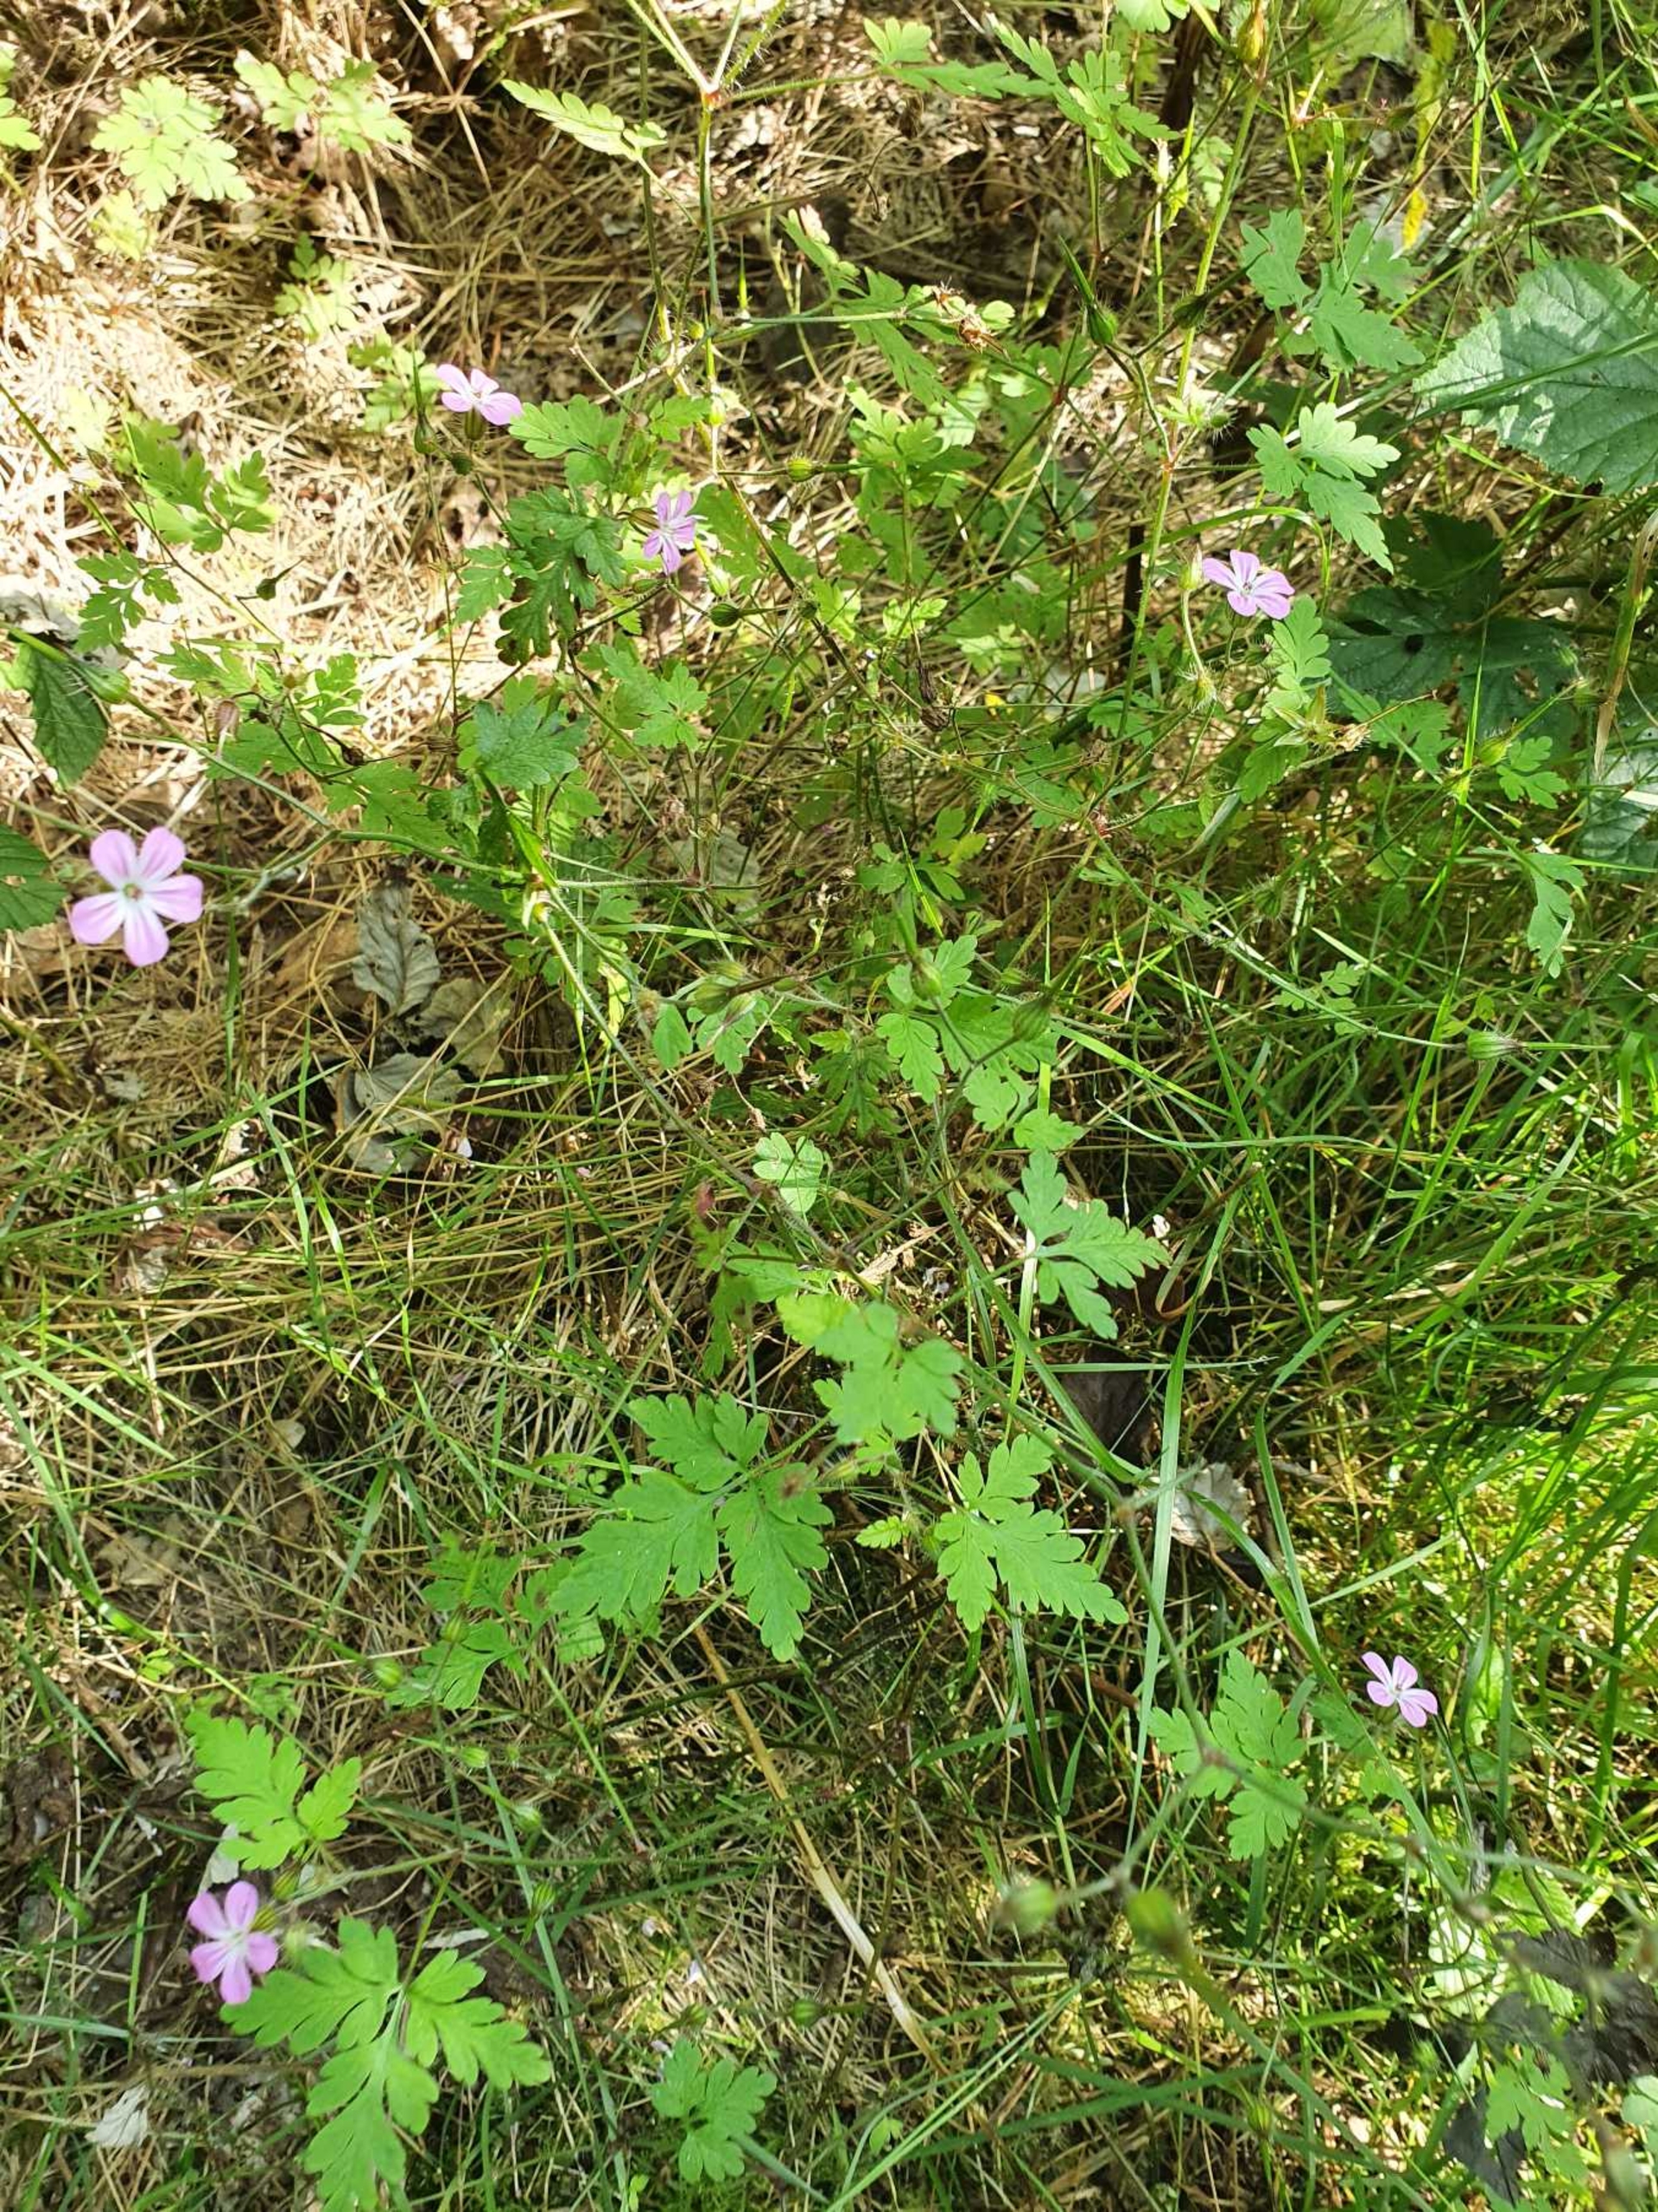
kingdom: Plantae
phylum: Tracheophyta
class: Magnoliopsida
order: Geraniales
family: Geraniaceae
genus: Geranium
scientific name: Geranium robertianum
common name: Stinkende storkenæb
